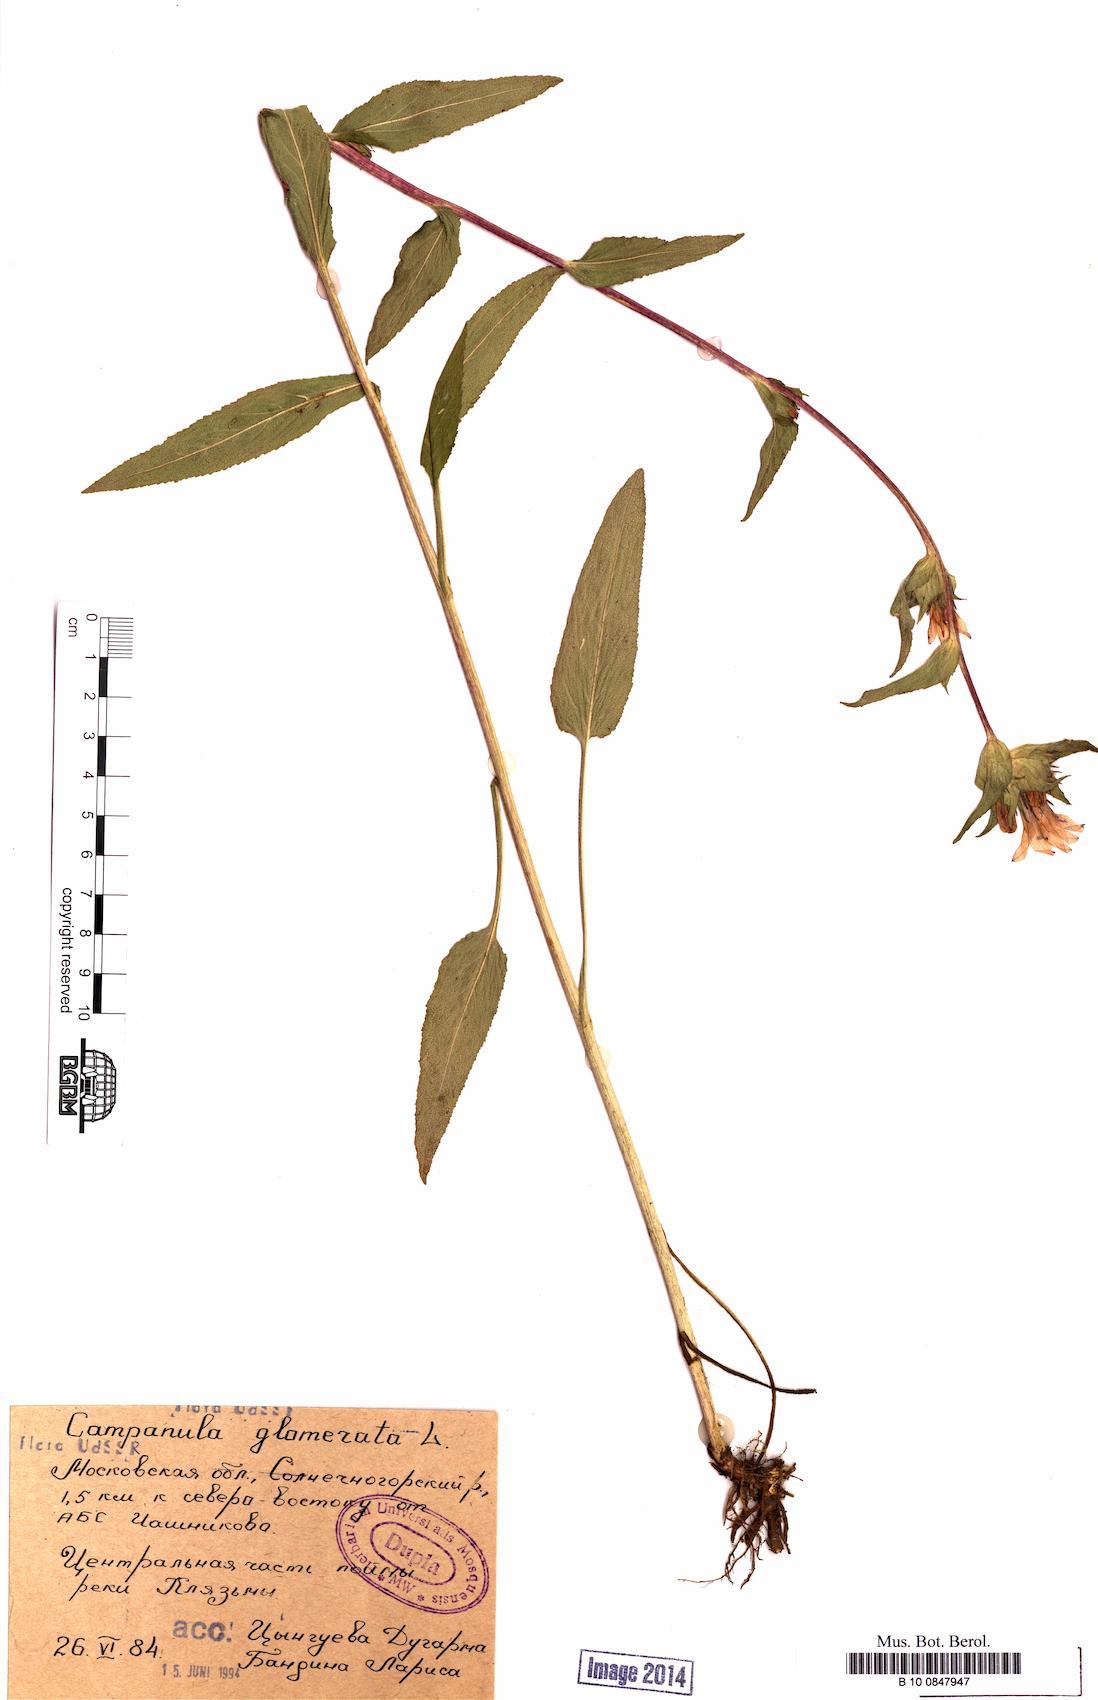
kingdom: Plantae
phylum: Tracheophyta
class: Magnoliopsida
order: Asterales
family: Campanulaceae
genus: Campanula
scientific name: Campanula glomerata
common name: Clustered bellflower
